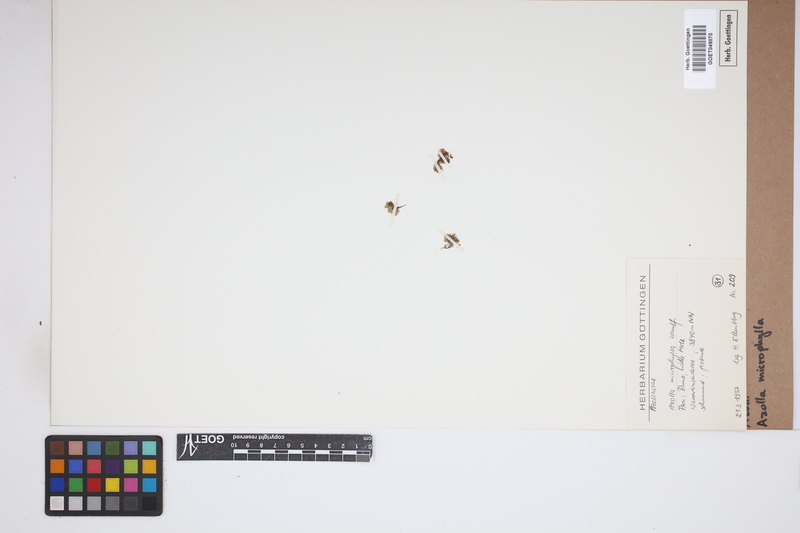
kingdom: Plantae
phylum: Tracheophyta
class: Polypodiopsida
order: Salviniales
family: Salviniaceae
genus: Azolla
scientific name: Azolla cristata
